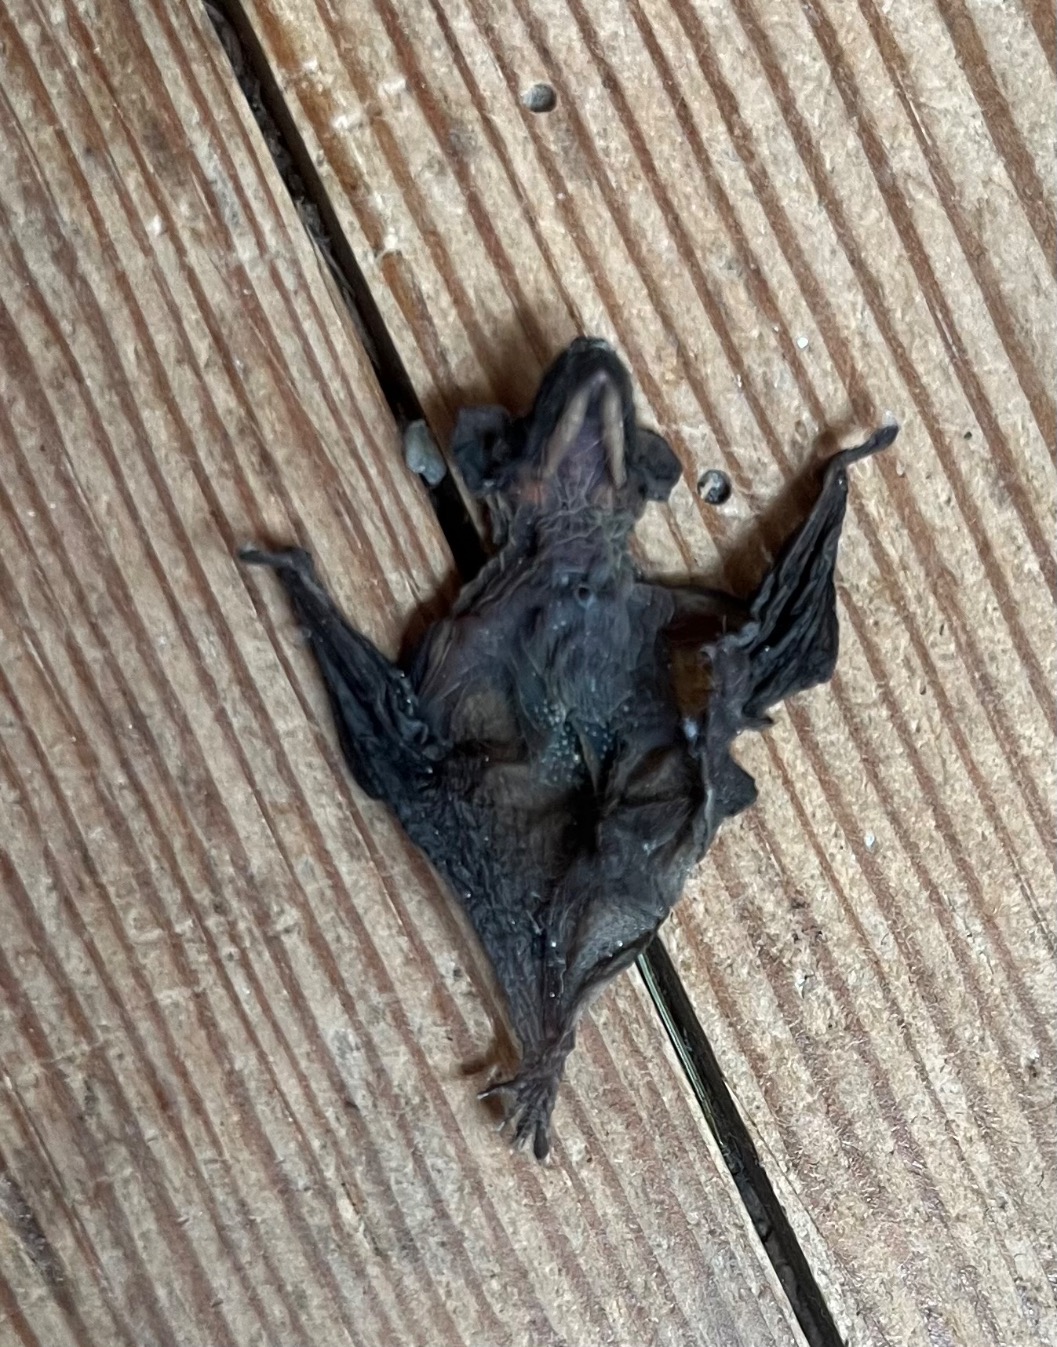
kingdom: Animalia
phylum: Chordata
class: Mammalia
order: Chiroptera
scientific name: Chiroptera
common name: Flagermus
